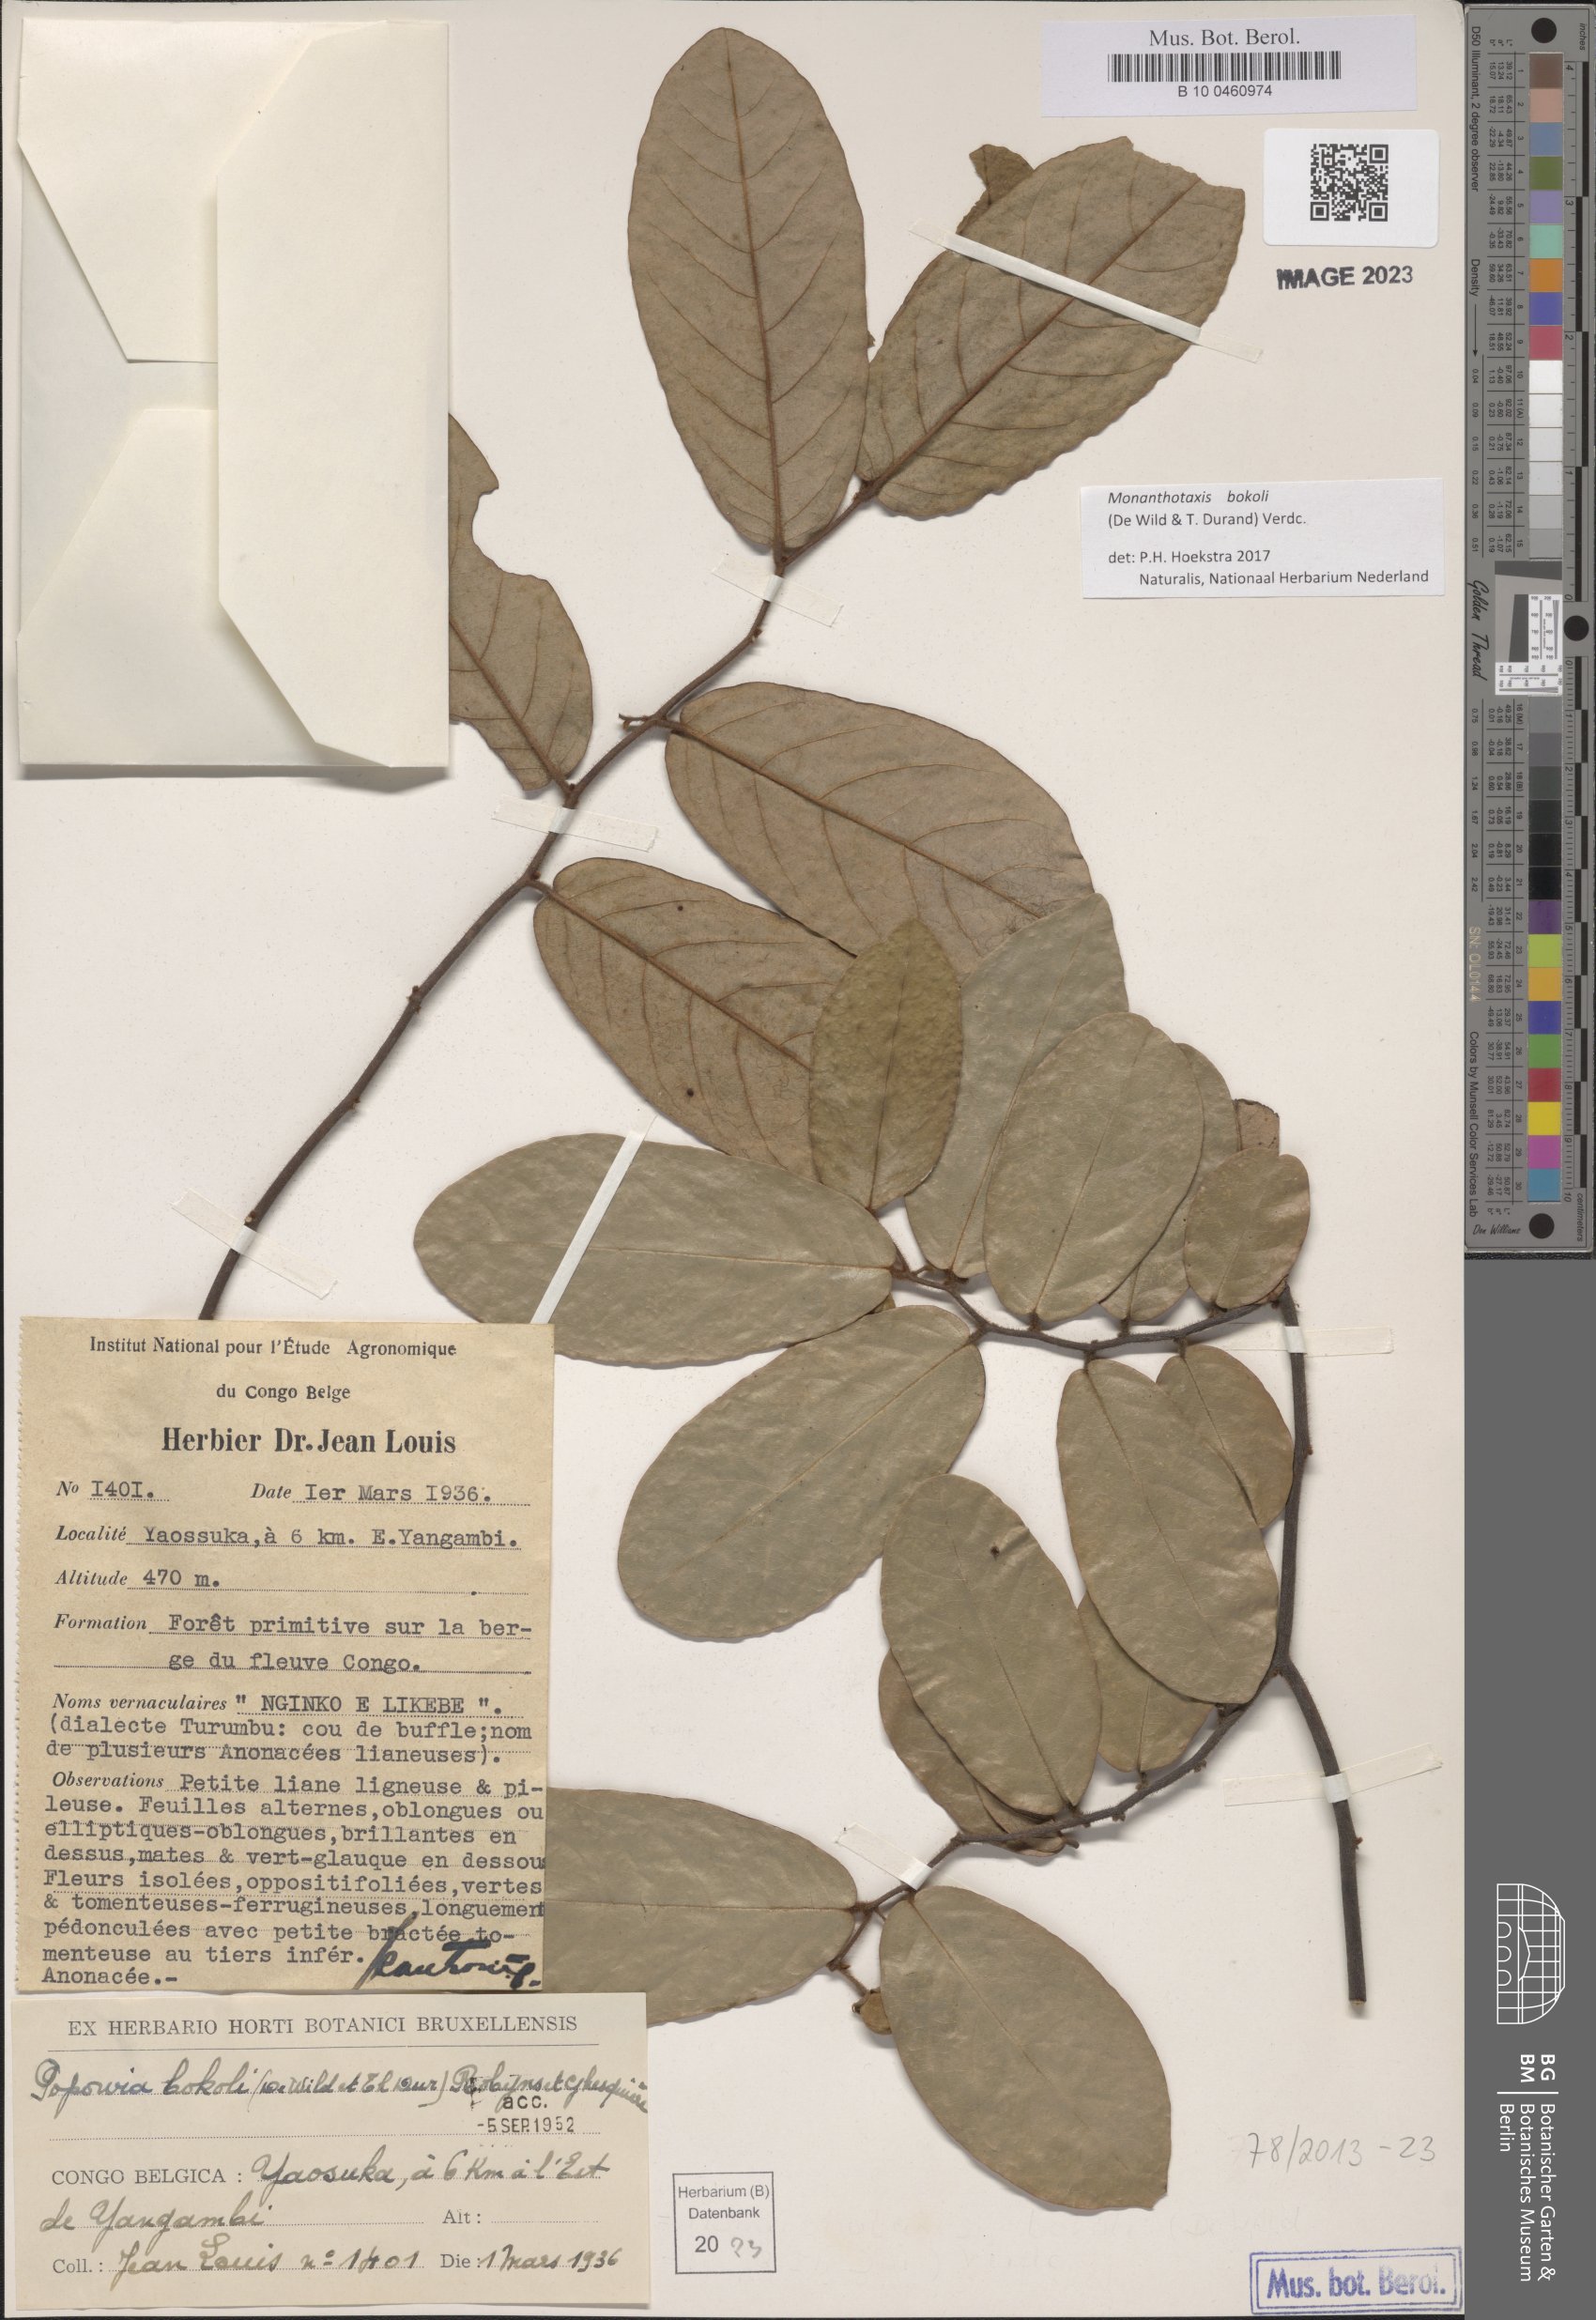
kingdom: Plantae
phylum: Tracheophyta
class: Magnoliopsida
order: Magnoliales
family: Annonaceae
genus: Monanthotaxis
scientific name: Monanthotaxis bokoli
